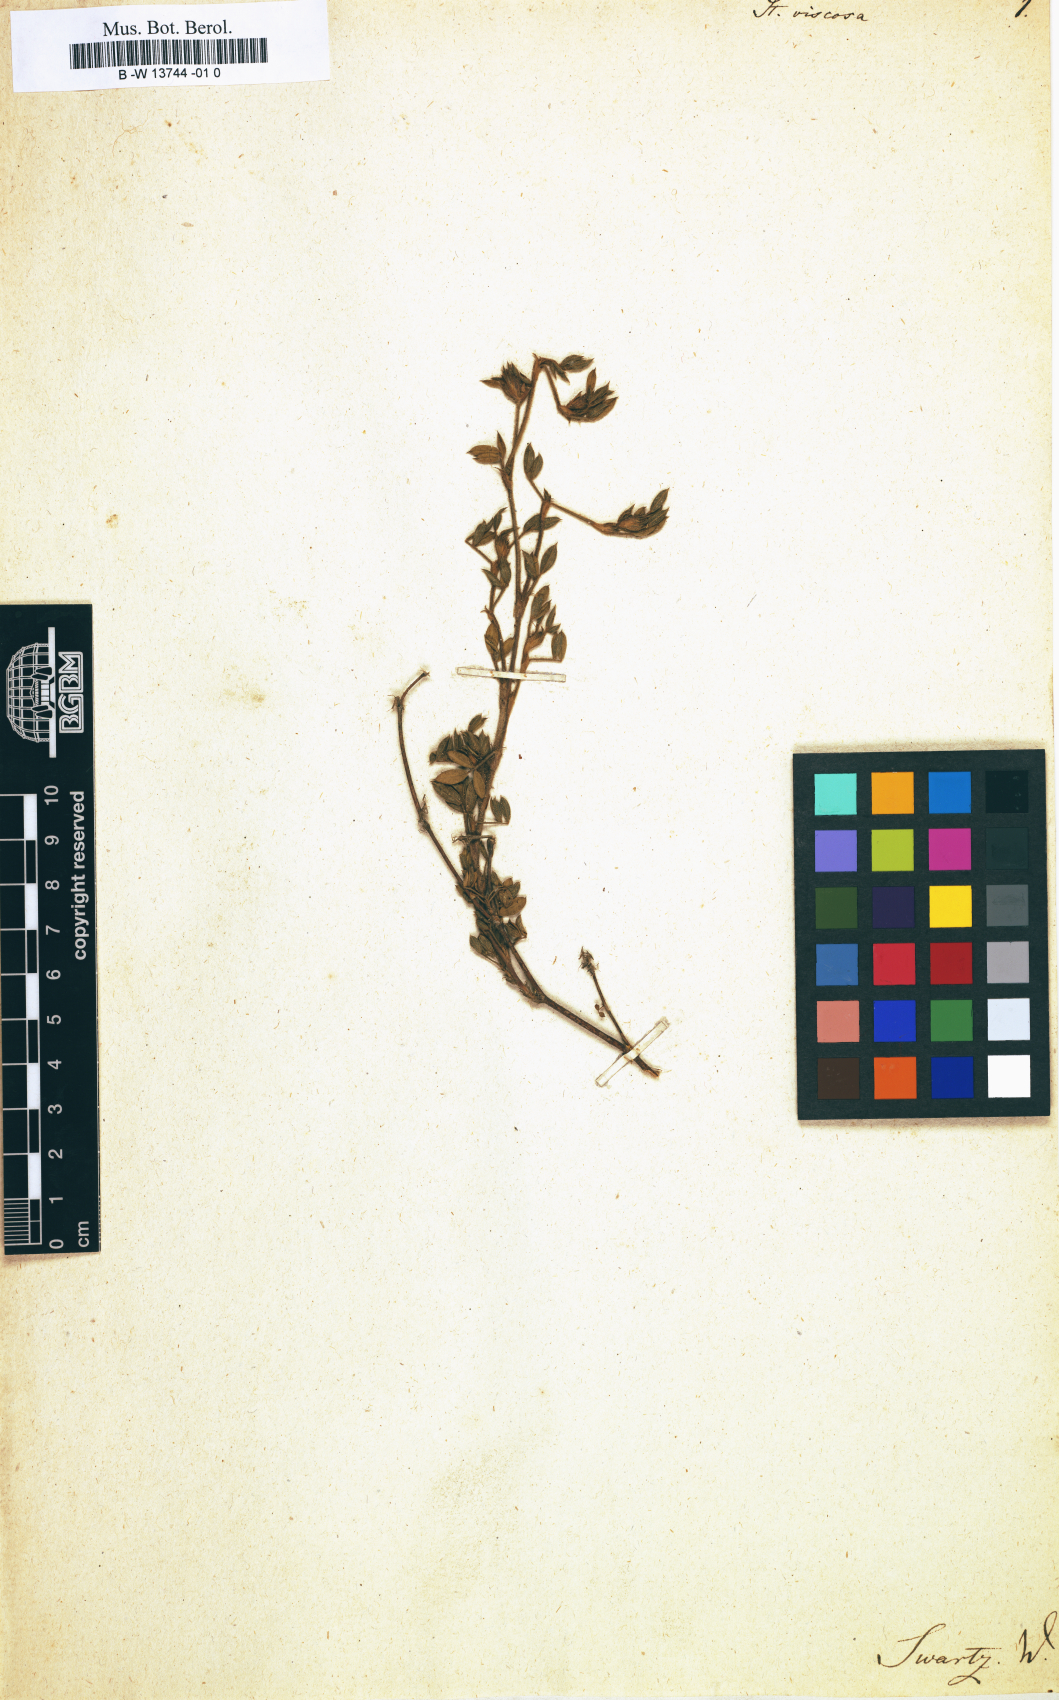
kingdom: Plantae
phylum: Tracheophyta
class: Magnoliopsida
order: Fabales
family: Fabaceae
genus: Stylosanthes
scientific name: Stylosanthes viscosa
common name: Viscid pencil-flower
